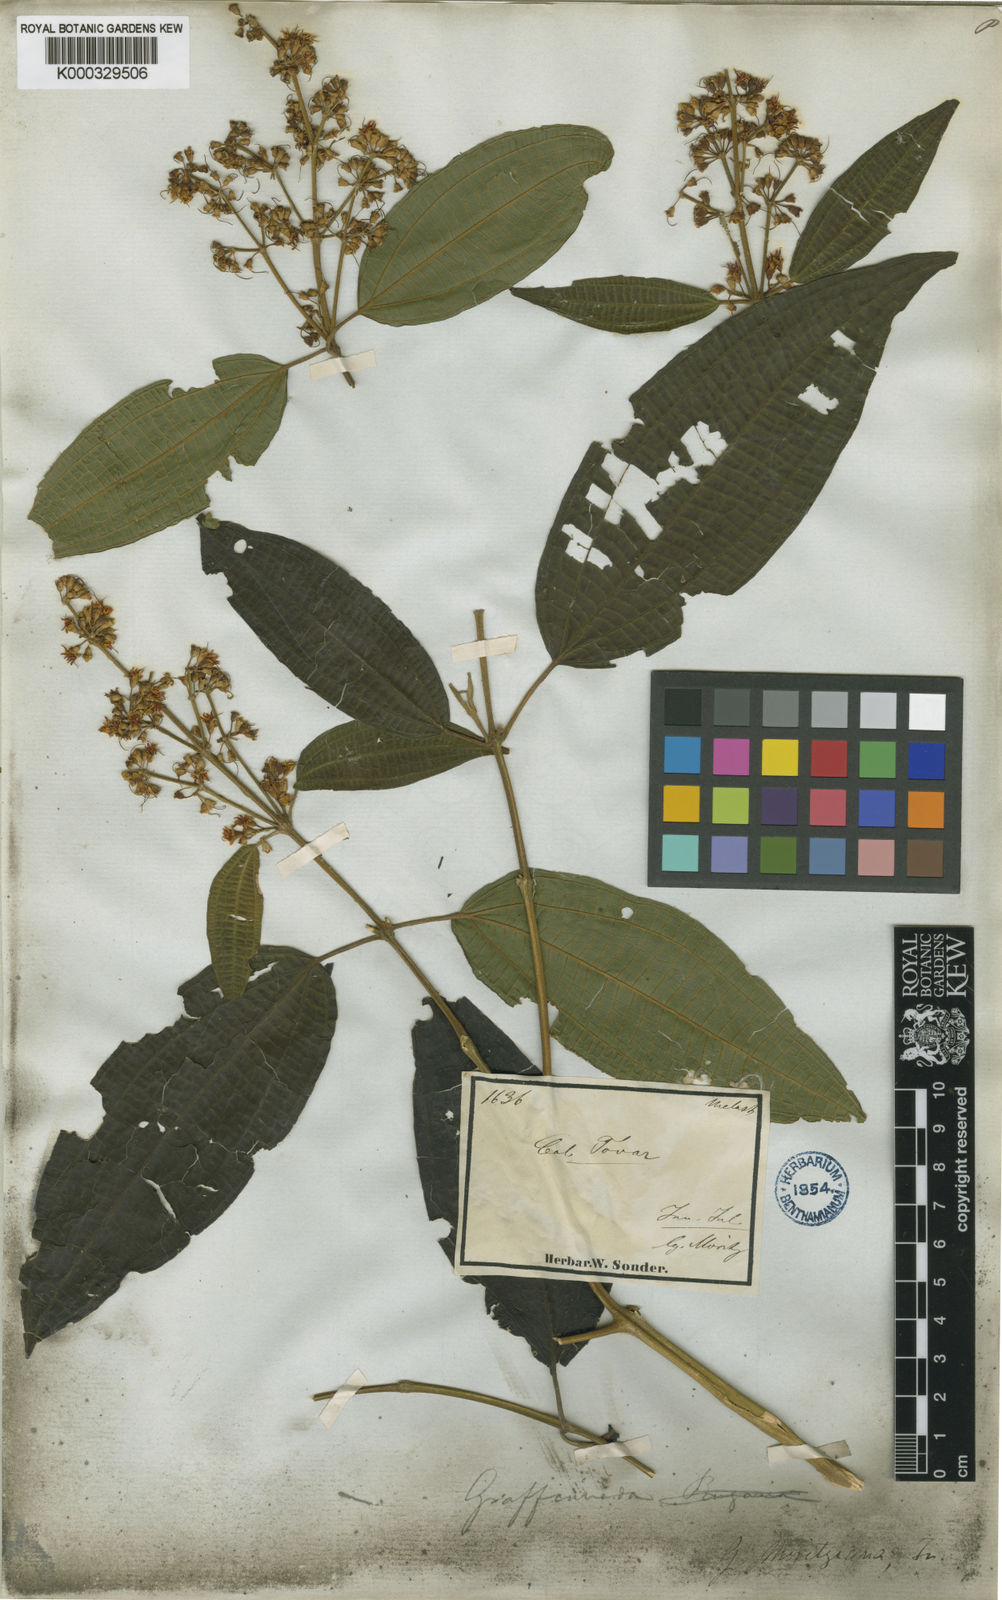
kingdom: Plantae
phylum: Tracheophyta
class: Magnoliopsida
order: Myrtales
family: Melastomataceae
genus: Graffenrieda
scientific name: Graffenrieda moritziana
